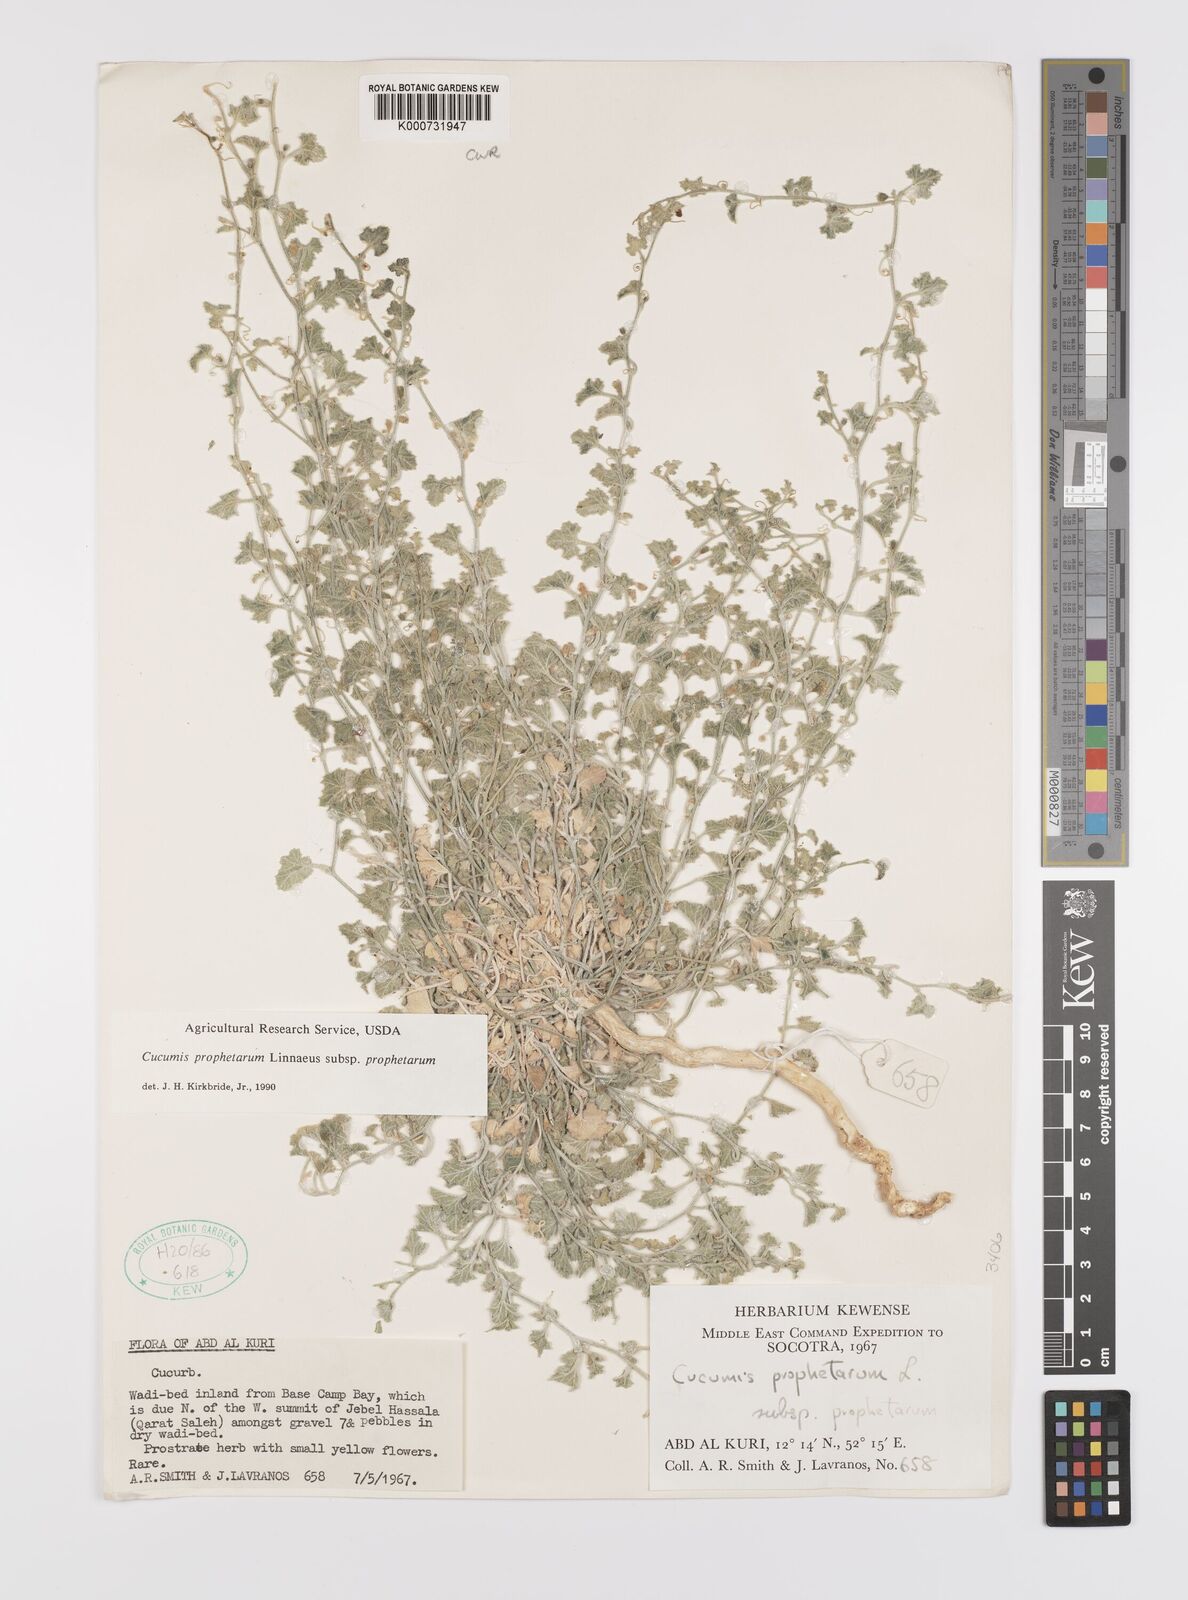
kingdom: Plantae
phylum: Tracheophyta
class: Magnoliopsida
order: Cucurbitales
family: Cucurbitaceae
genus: Cucumis
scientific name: Cucumis prophetarum
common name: Wild cucumber
